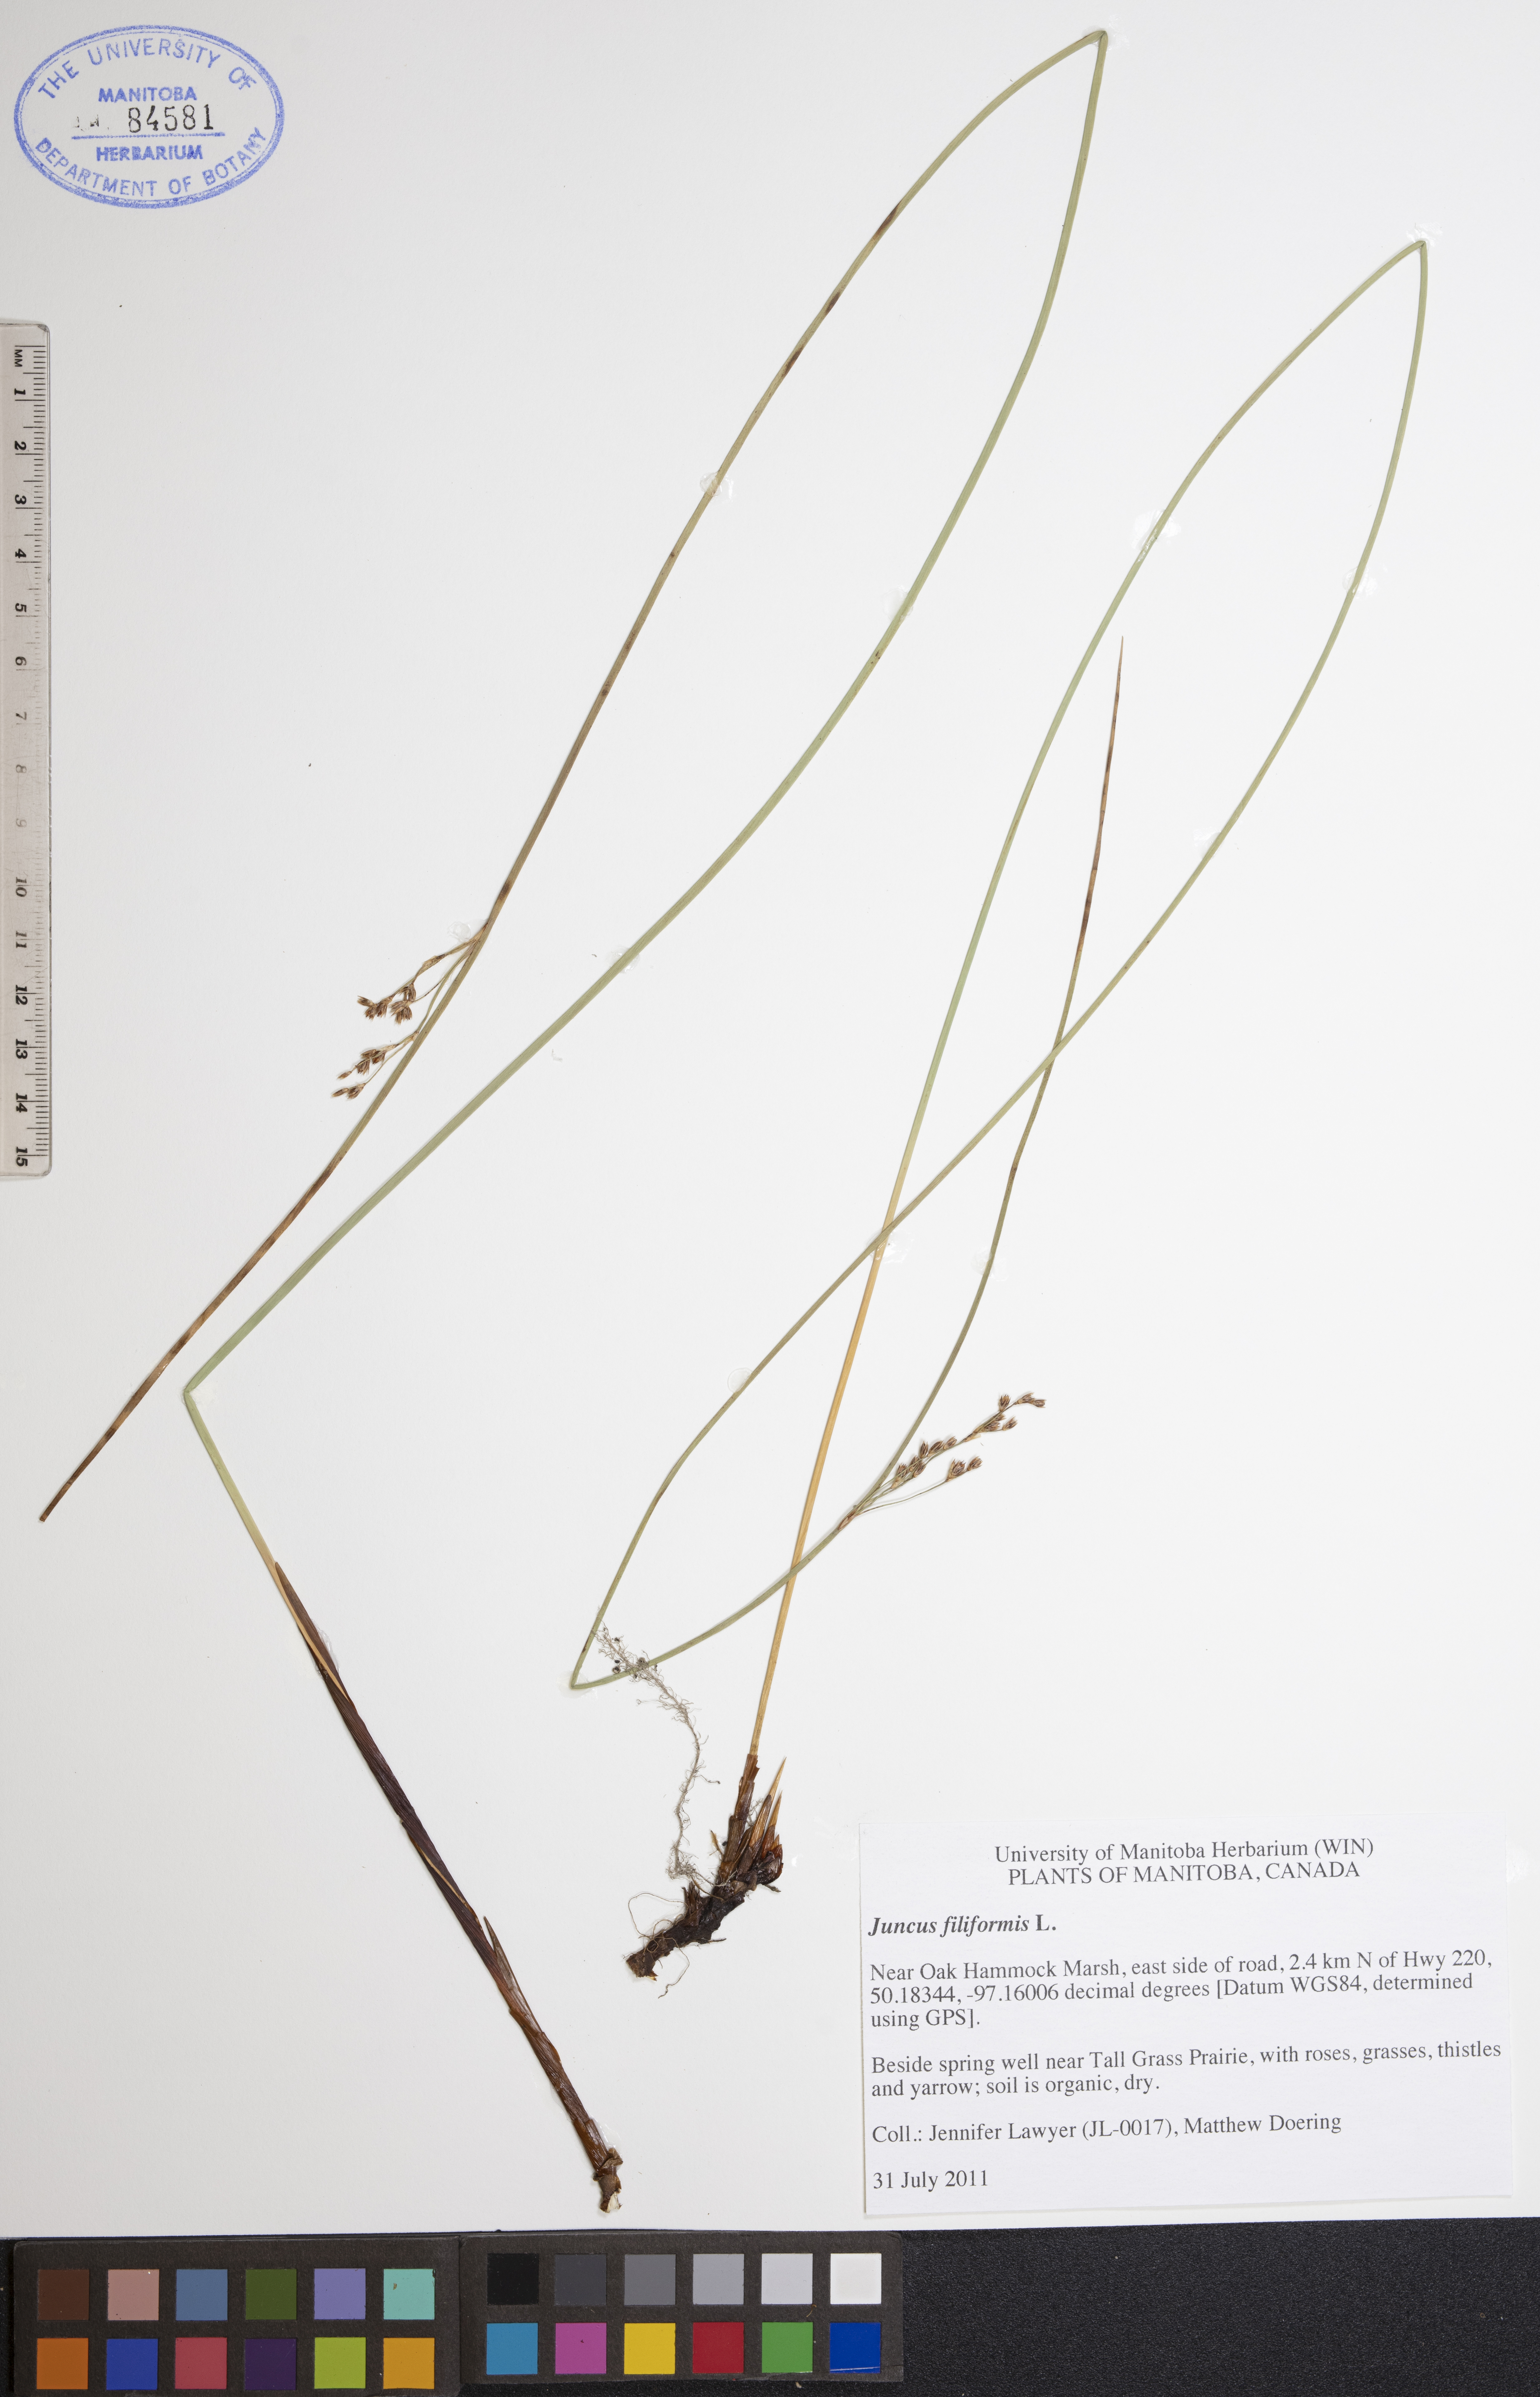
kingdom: Plantae
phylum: Tracheophyta
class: Liliopsida
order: Poales
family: Juncaceae
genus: Juncus
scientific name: Juncus filiformis
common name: Thread rush
